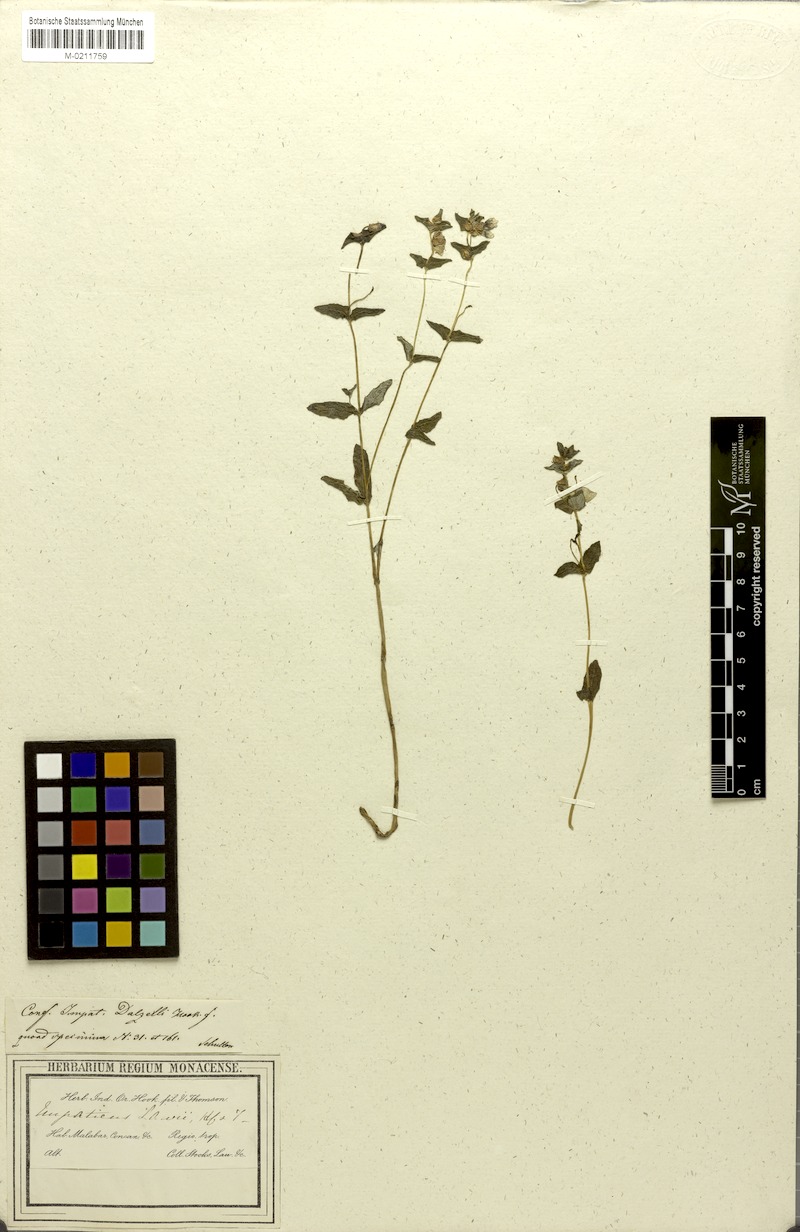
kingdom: Plantae
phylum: Tracheophyta
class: Magnoliopsida
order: Ericales
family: Balsaminaceae
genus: Impatiens
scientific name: Impatiens lawii
